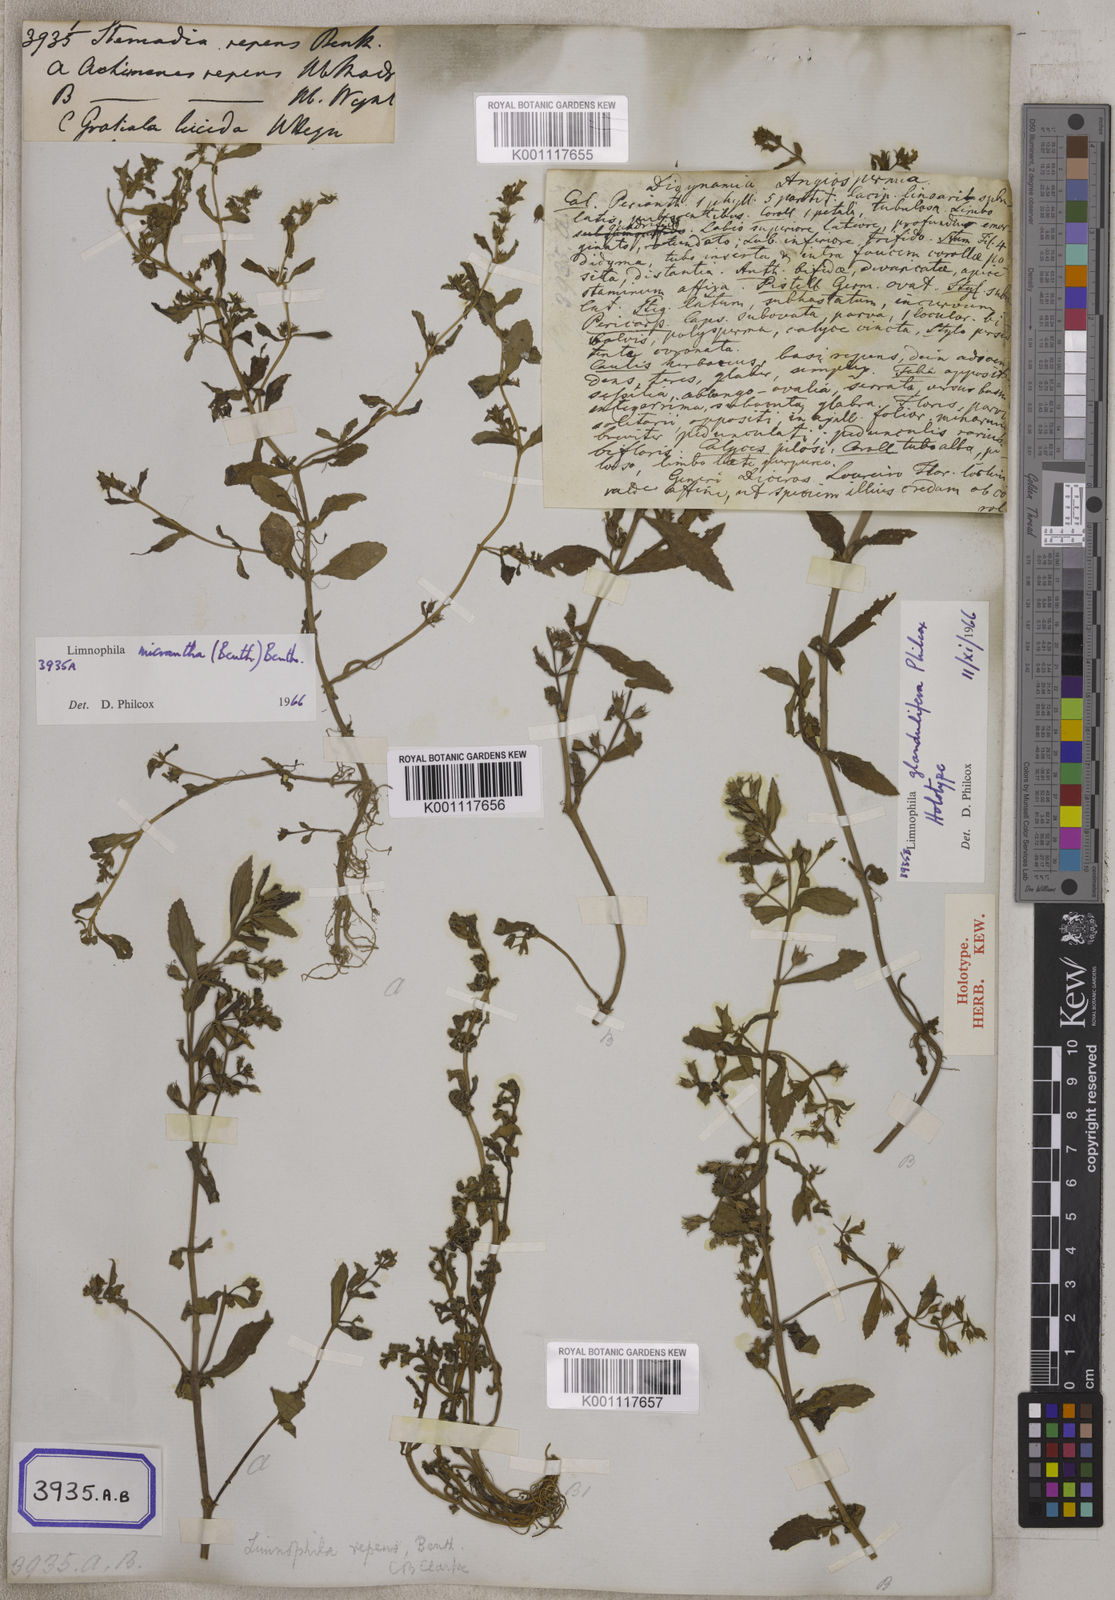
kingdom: Plantae
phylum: Tracheophyta
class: Magnoliopsida
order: Lamiales
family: Plantaginaceae
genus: Limnophila
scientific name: Limnophila repens
